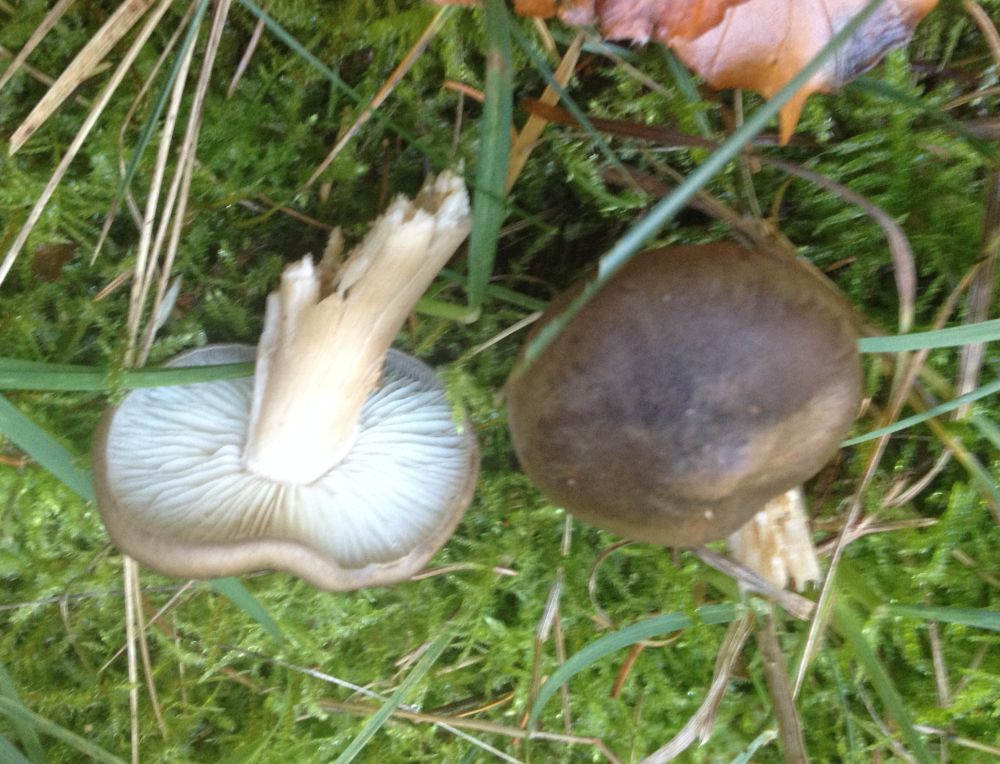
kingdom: Fungi
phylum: Basidiomycota
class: Agaricomycetes
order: Agaricales
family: Tricholomataceae
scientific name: Tricholomataceae
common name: ridderhatfamilien
